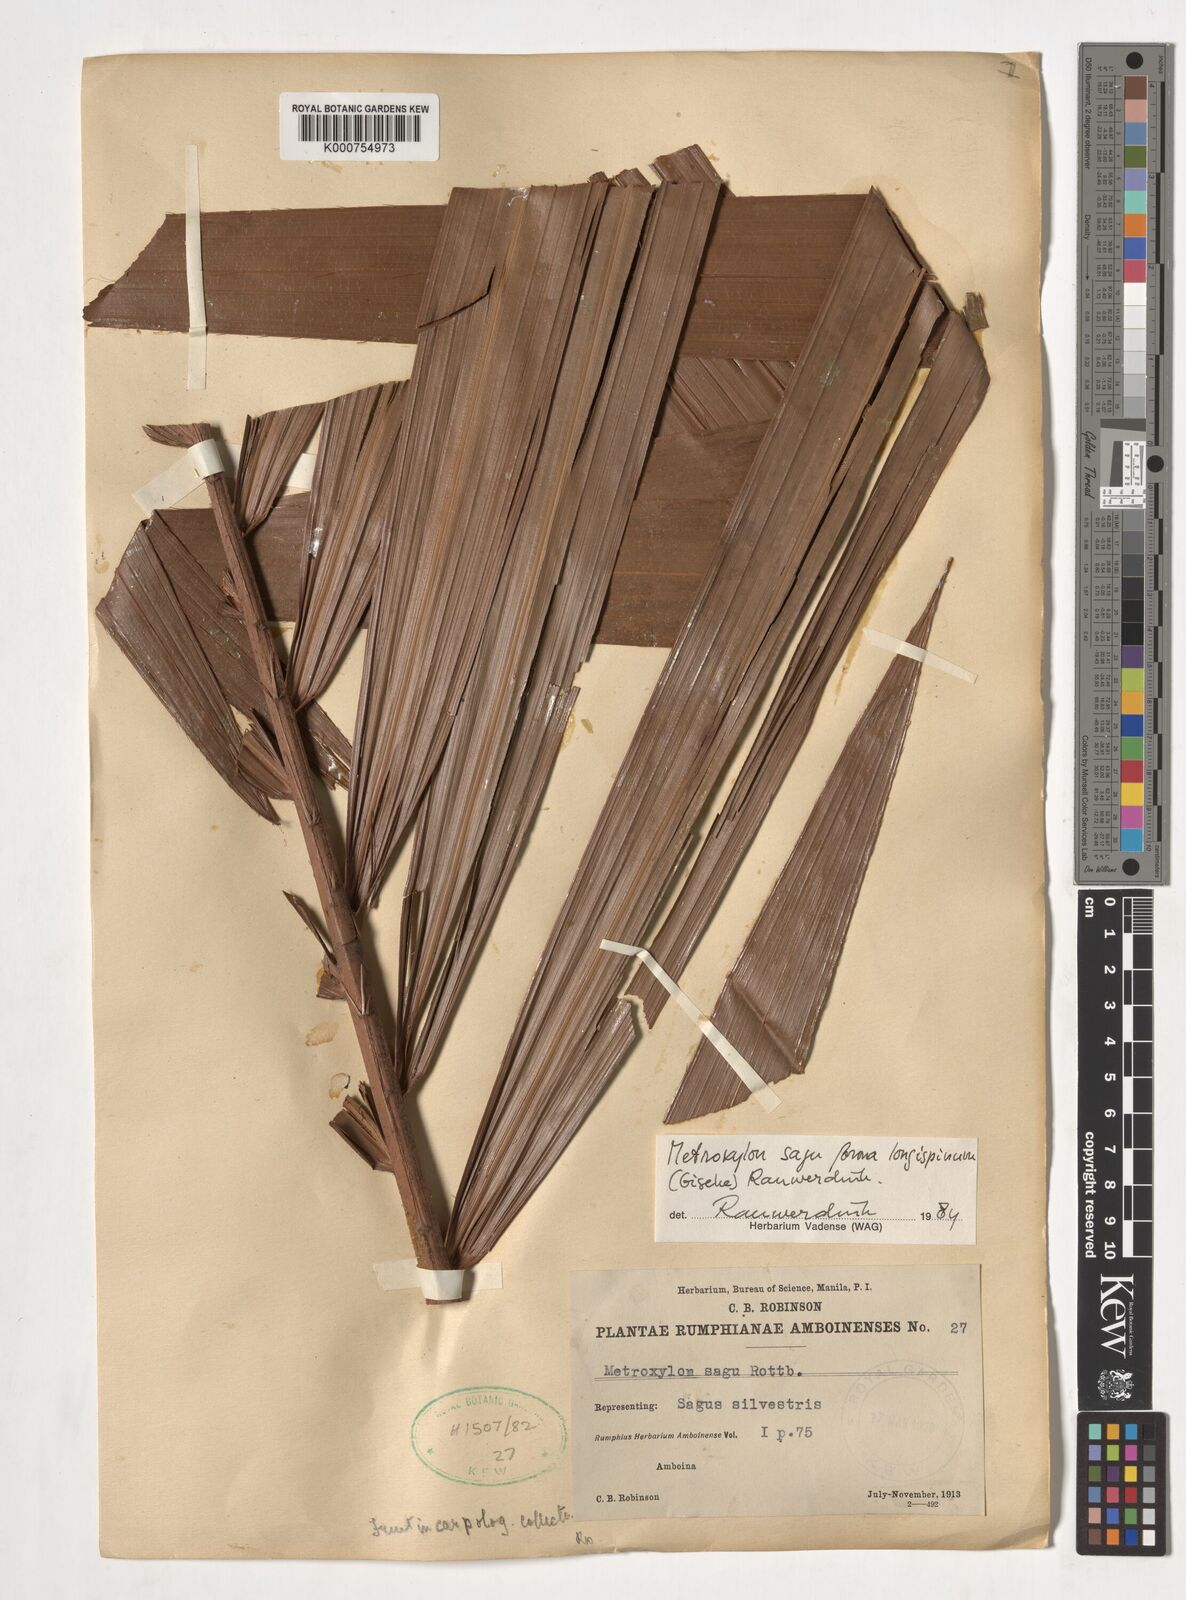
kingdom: Plantae
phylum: Tracheophyta
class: Liliopsida
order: Arecales
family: Arecaceae
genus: Metroxylon
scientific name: Metroxylon sagu
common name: Sago palm
